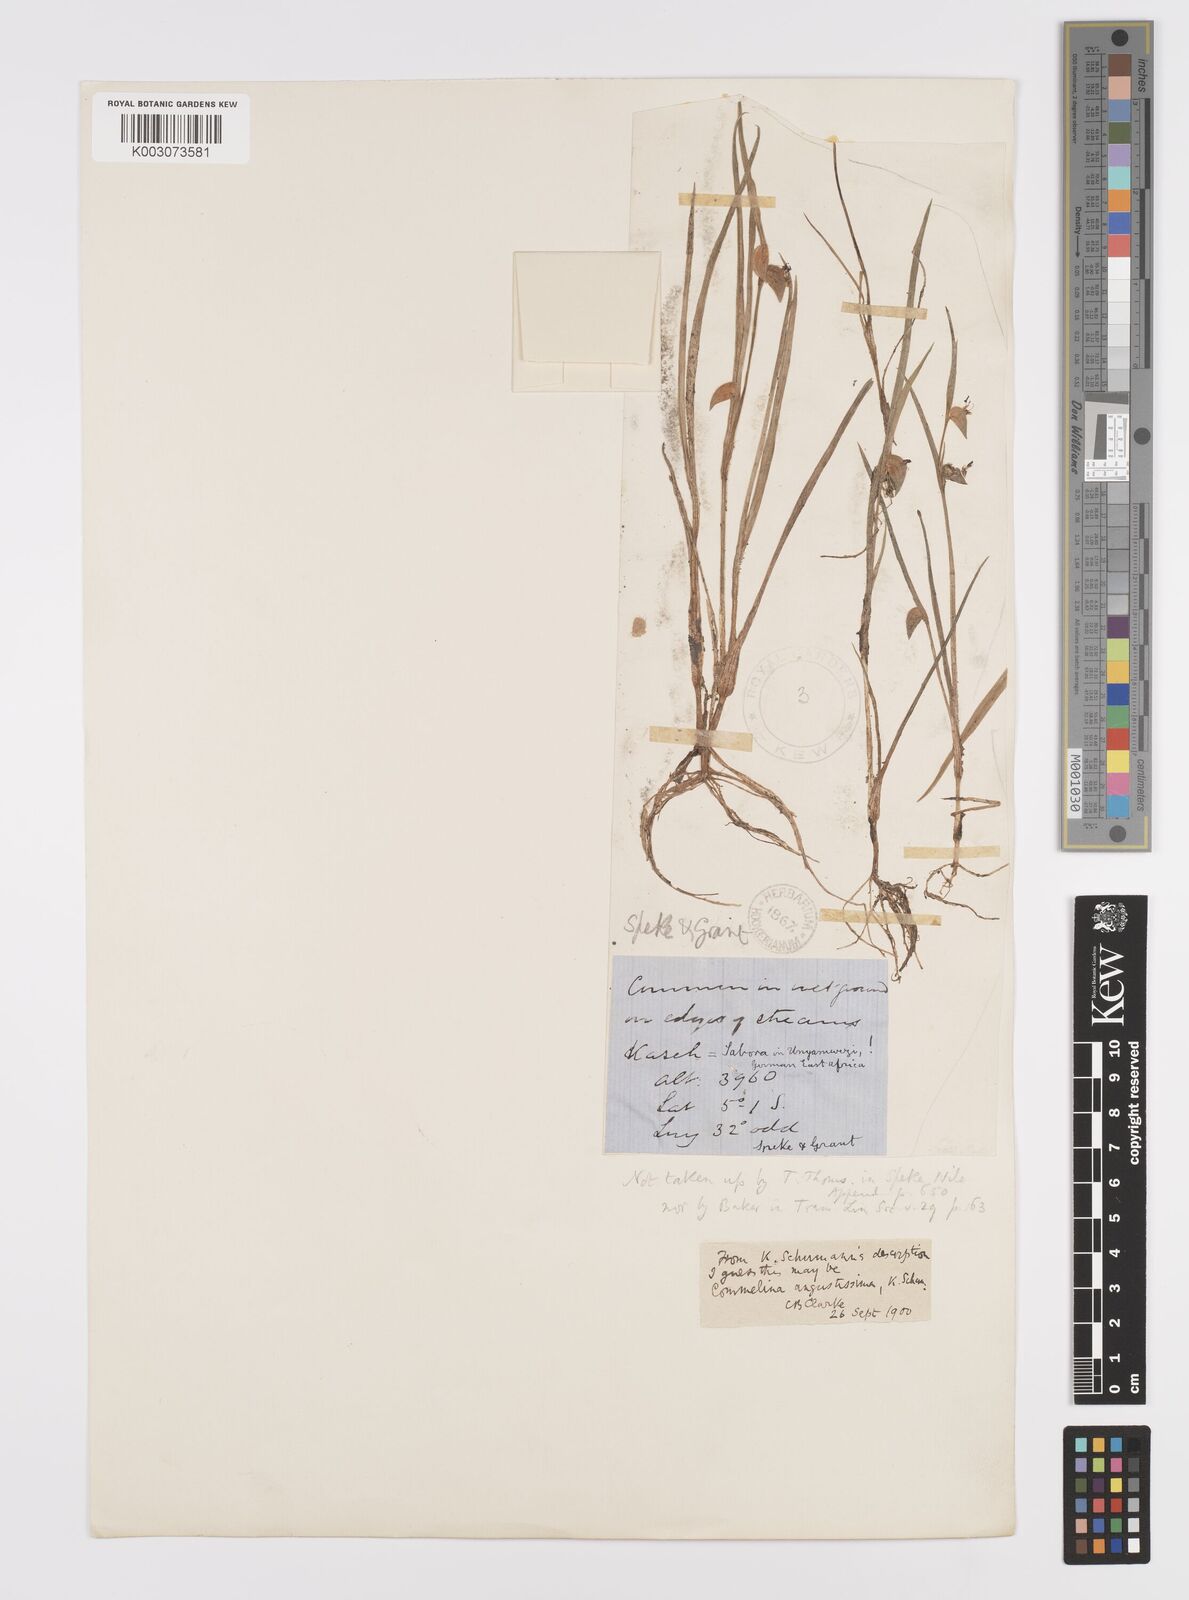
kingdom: Plantae
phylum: Tracheophyta
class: Liliopsida
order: Commelinales
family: Commelinaceae
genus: Commelina
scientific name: Commelina subulata
